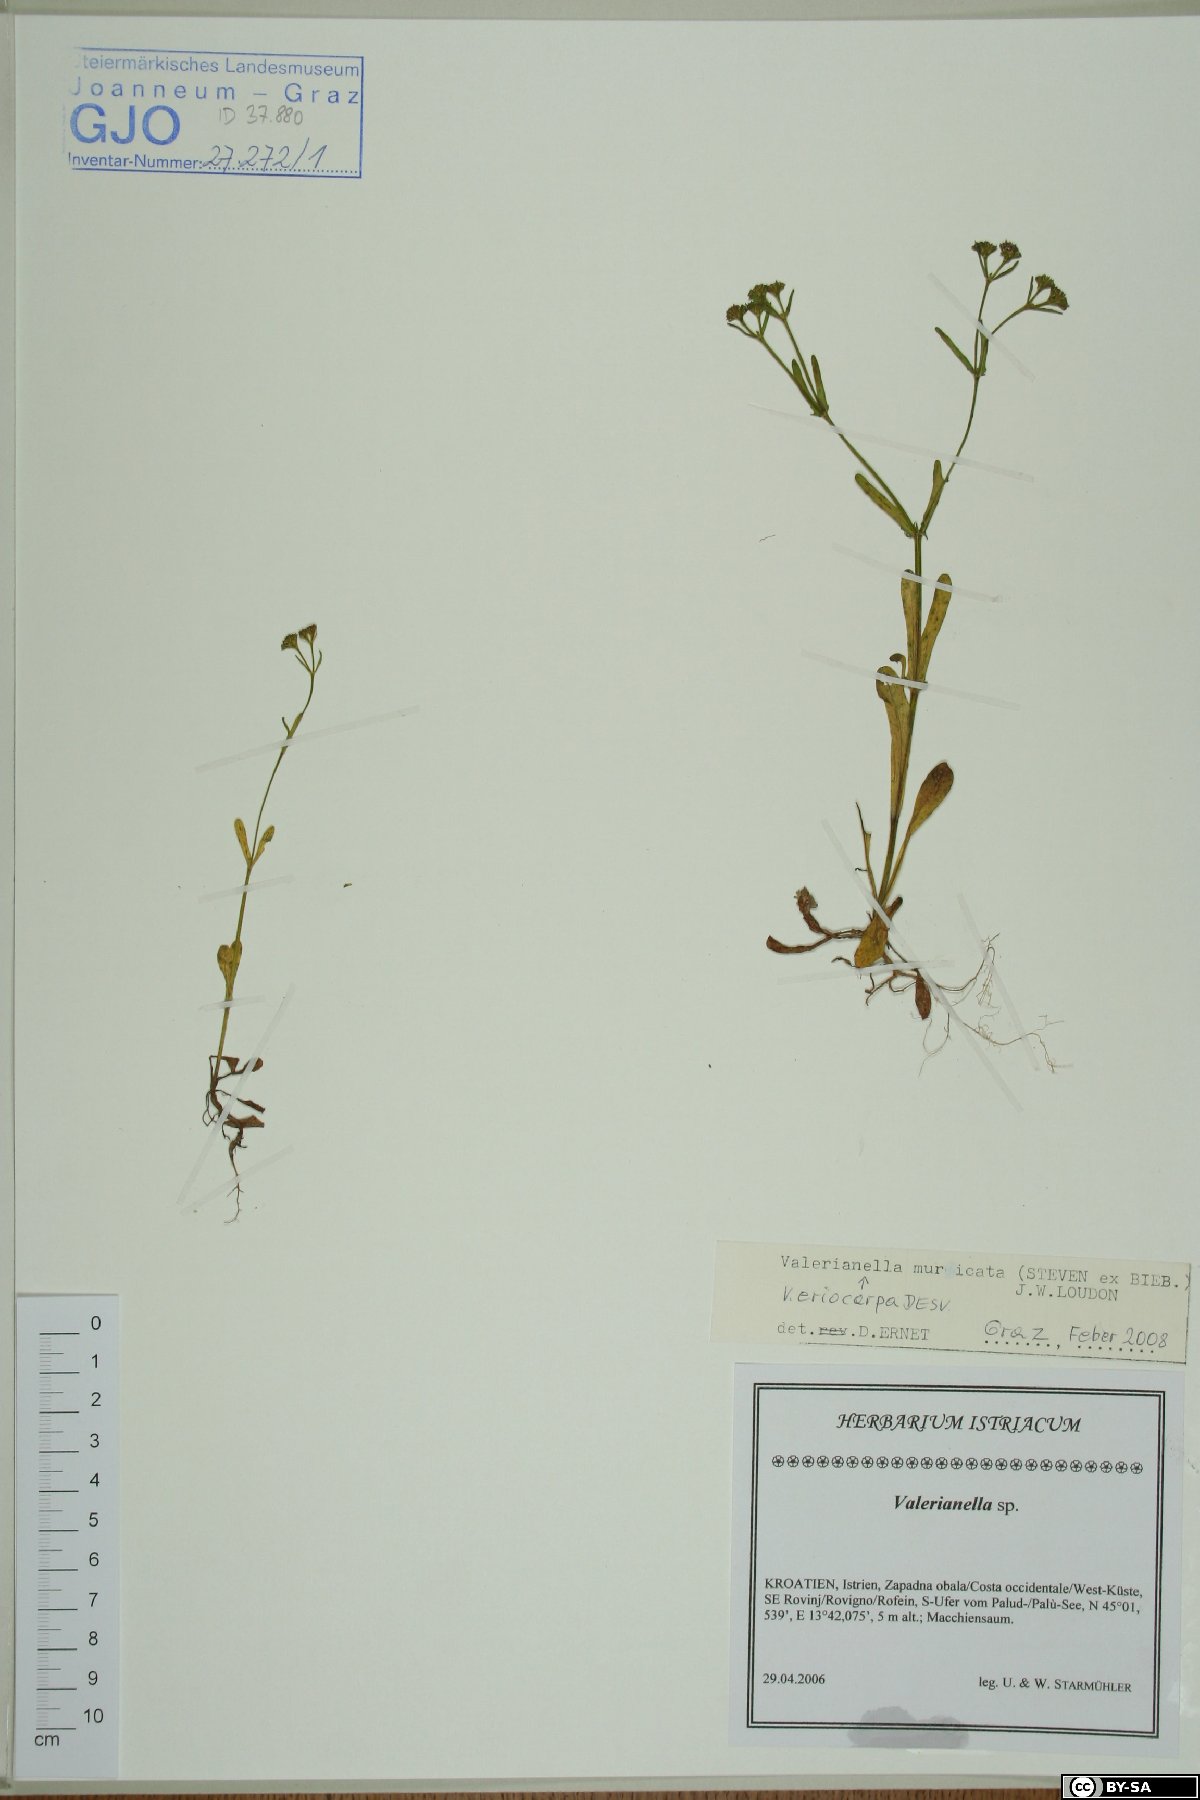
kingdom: Plantae
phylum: Tracheophyta
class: Magnoliopsida
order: Dipsacales
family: Caprifoliaceae
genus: Valerianella
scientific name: Valerianella eriocarpa
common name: Hairy-fruited cornsalad
